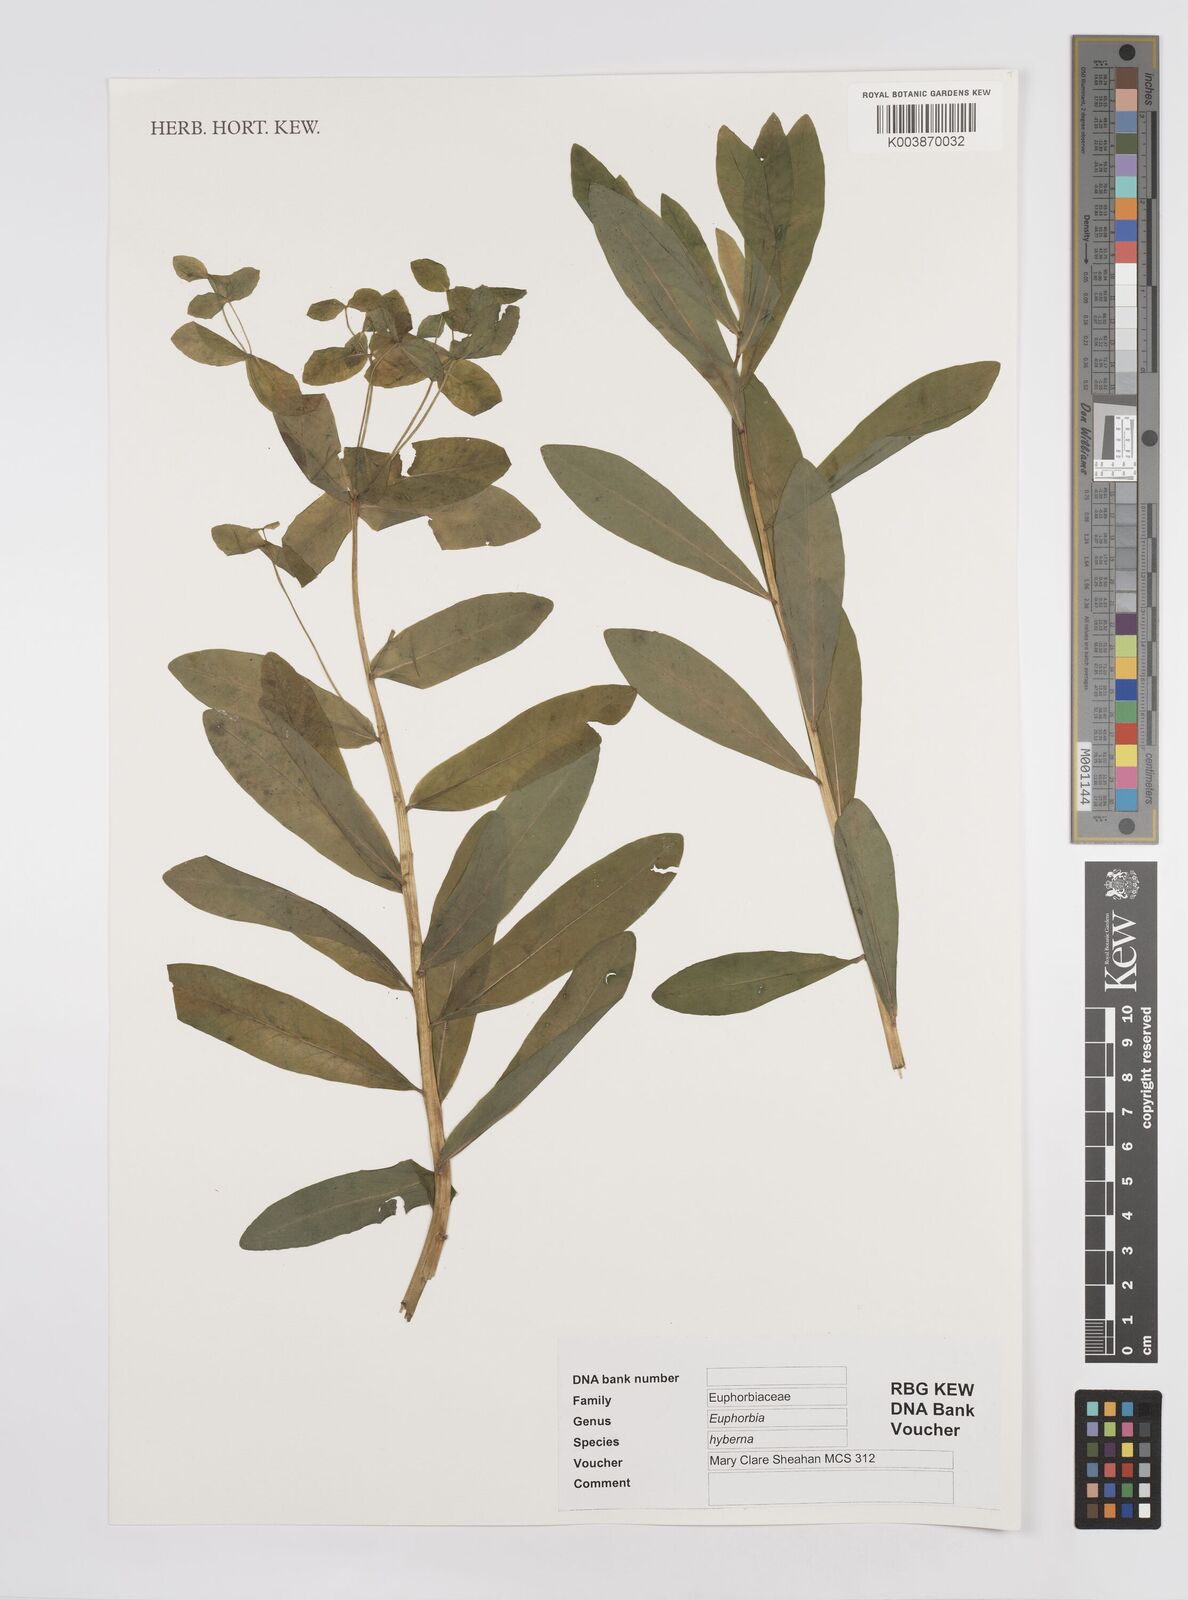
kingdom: Plantae
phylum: Tracheophyta
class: Magnoliopsida
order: Malpighiales
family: Euphorbiaceae
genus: Euphorbia
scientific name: Euphorbia hyberna
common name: Irish spurge
